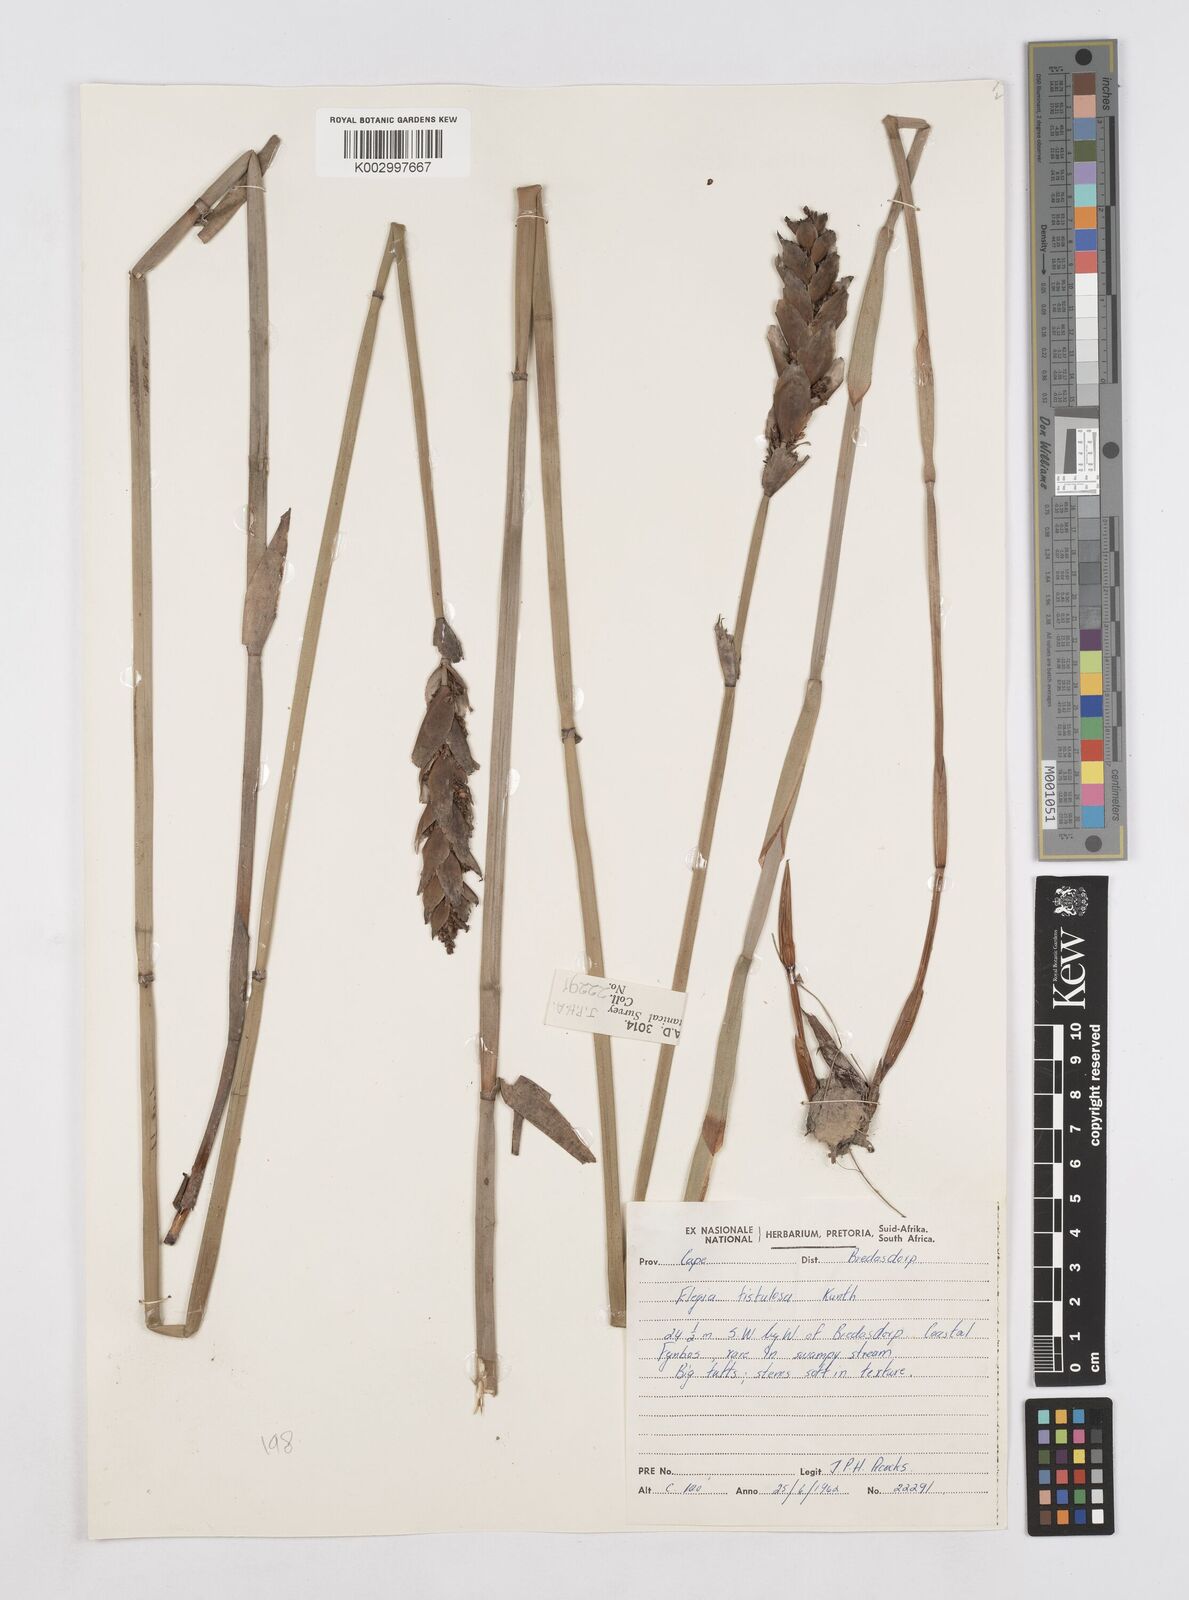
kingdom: Plantae
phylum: Tracheophyta
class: Liliopsida
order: Poales
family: Restionaceae
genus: Elegia
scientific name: Elegia fistulosa
